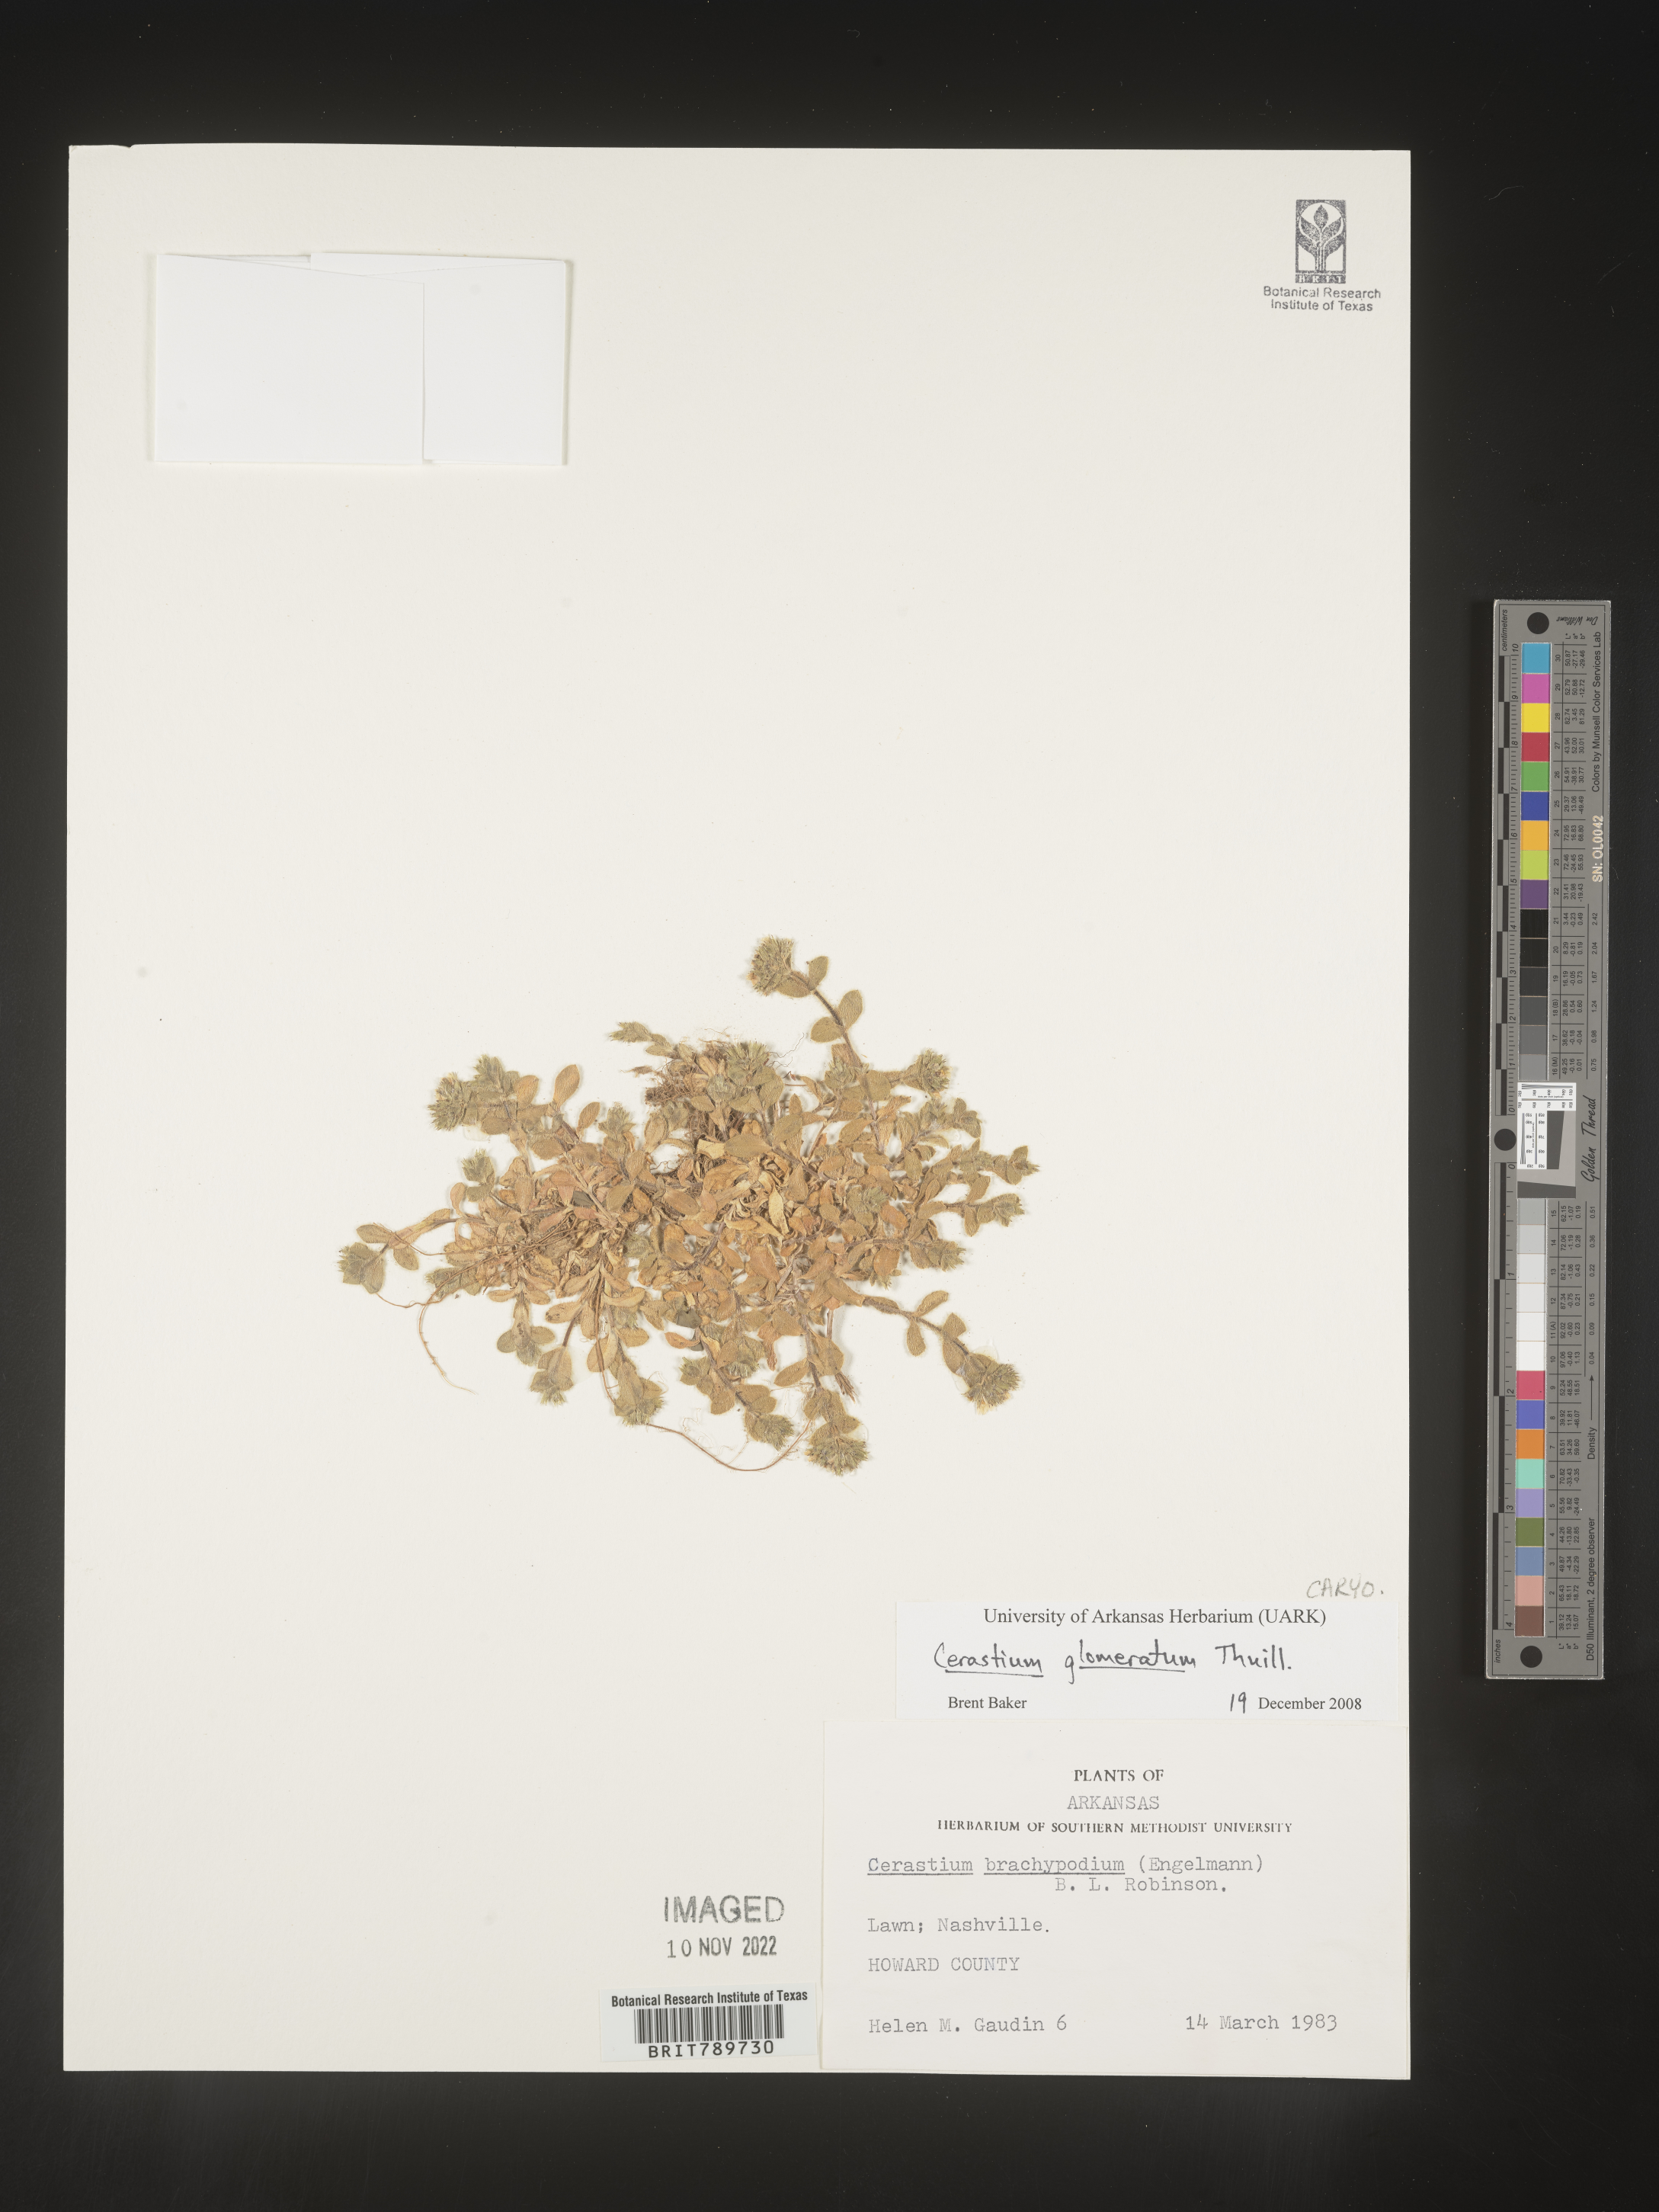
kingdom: Plantae
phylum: Tracheophyta
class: Magnoliopsida
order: Caryophyllales
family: Caryophyllaceae
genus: Cerastium
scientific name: Cerastium glomeratum
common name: Sticky chickweed
